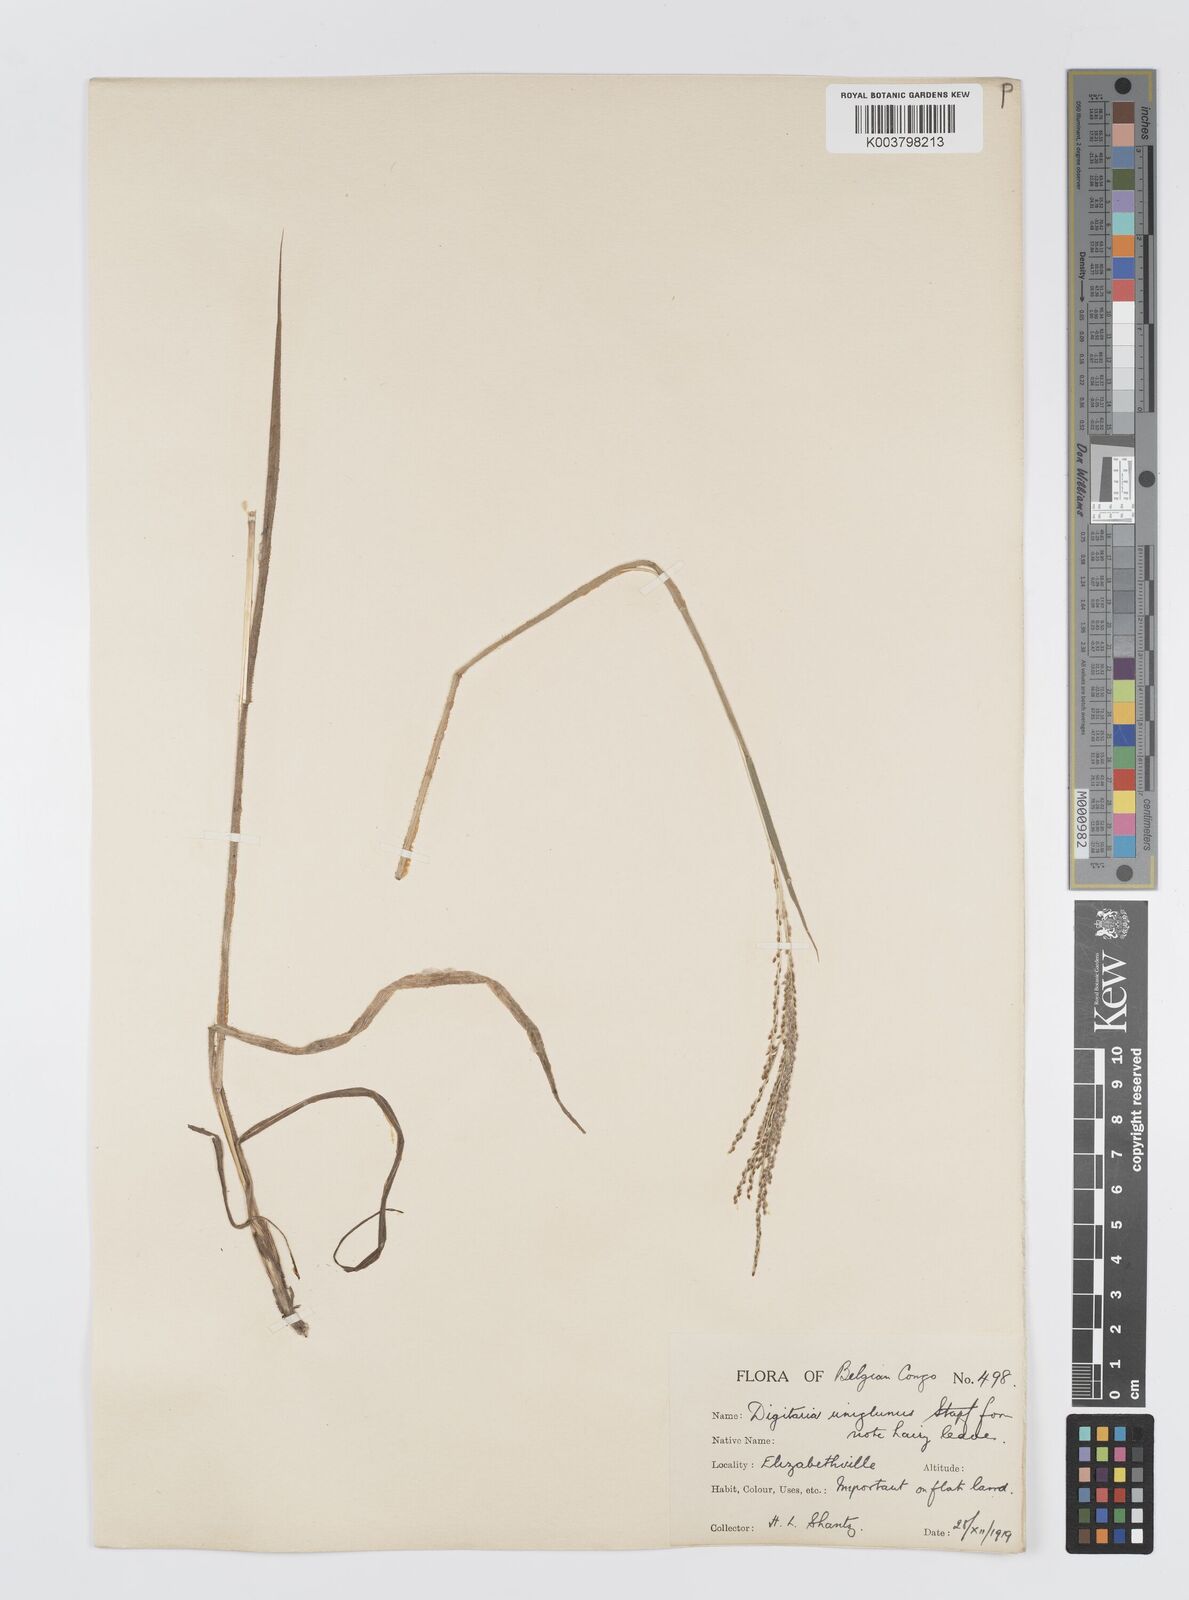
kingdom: Plantae
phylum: Tracheophyta
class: Liliopsida
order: Poales
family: Poaceae
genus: Digitaria
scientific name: Digitaria diagonalis
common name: Brown-seed finger grass
